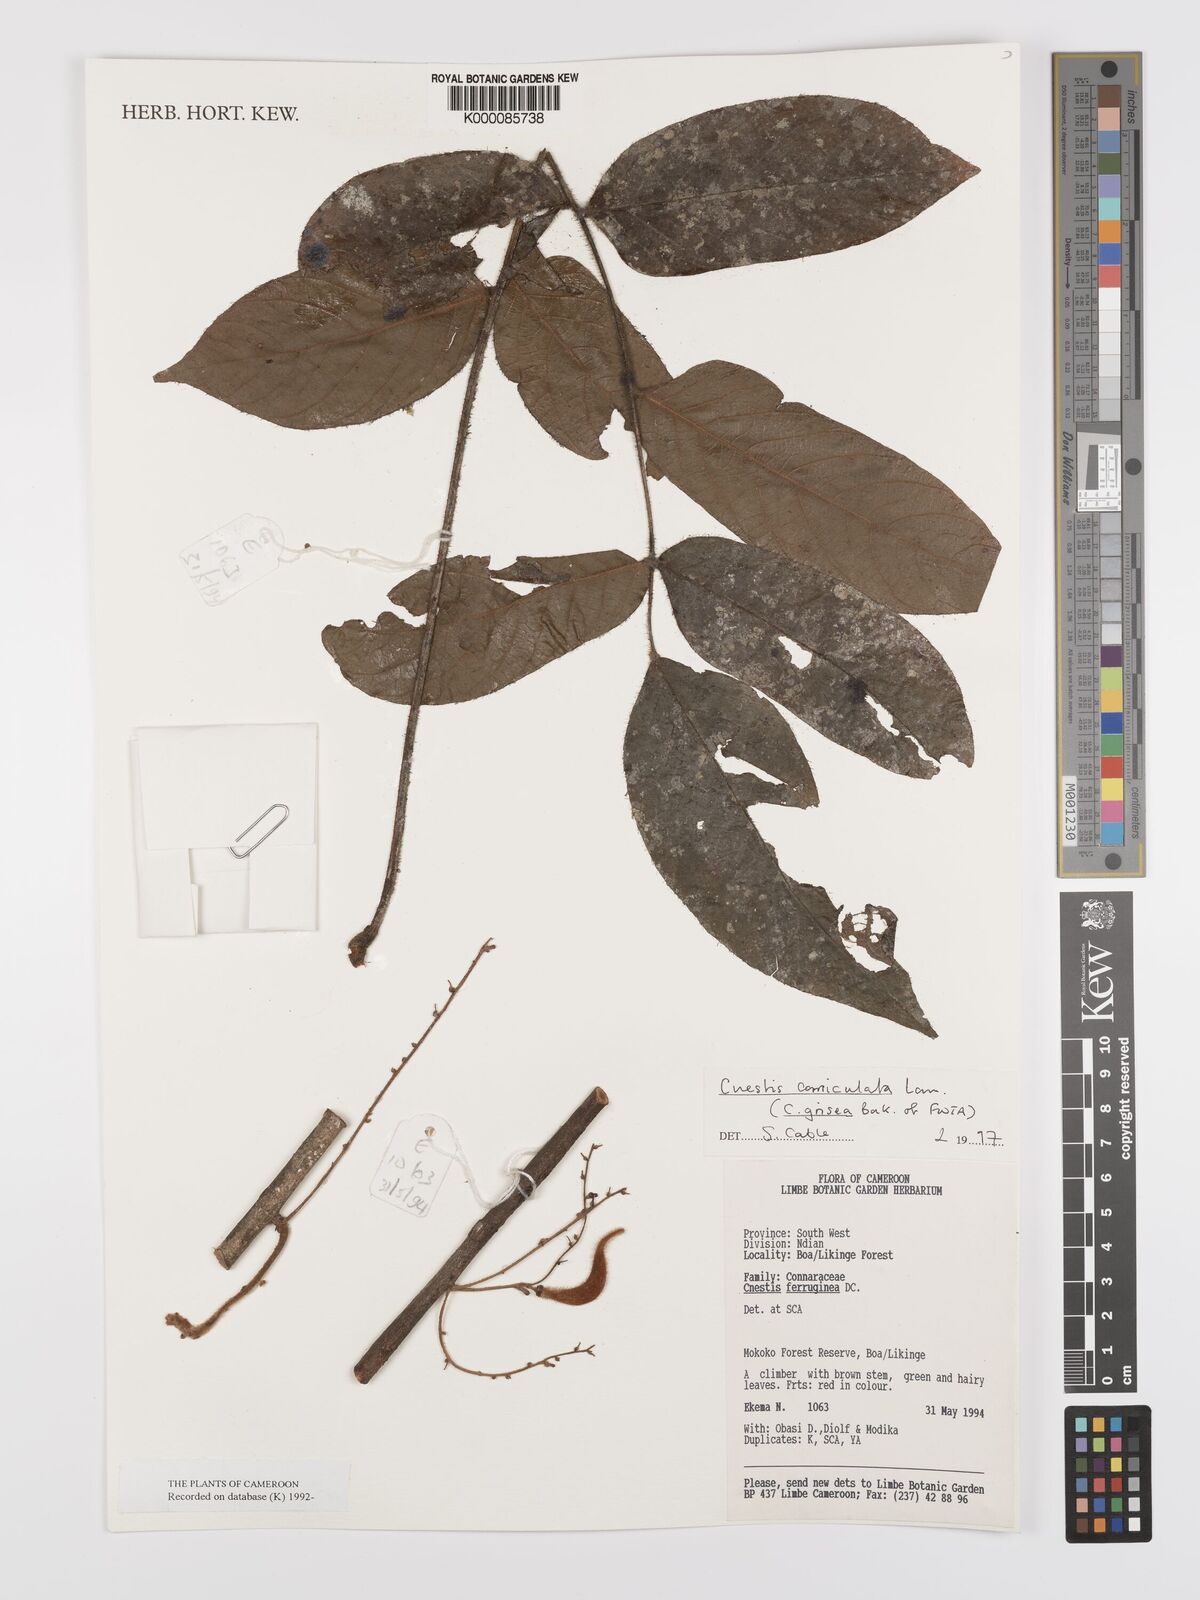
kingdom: Plantae
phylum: Tracheophyta
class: Magnoliopsida
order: Oxalidales
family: Connaraceae
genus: Cnestis
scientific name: Cnestis corniculata
